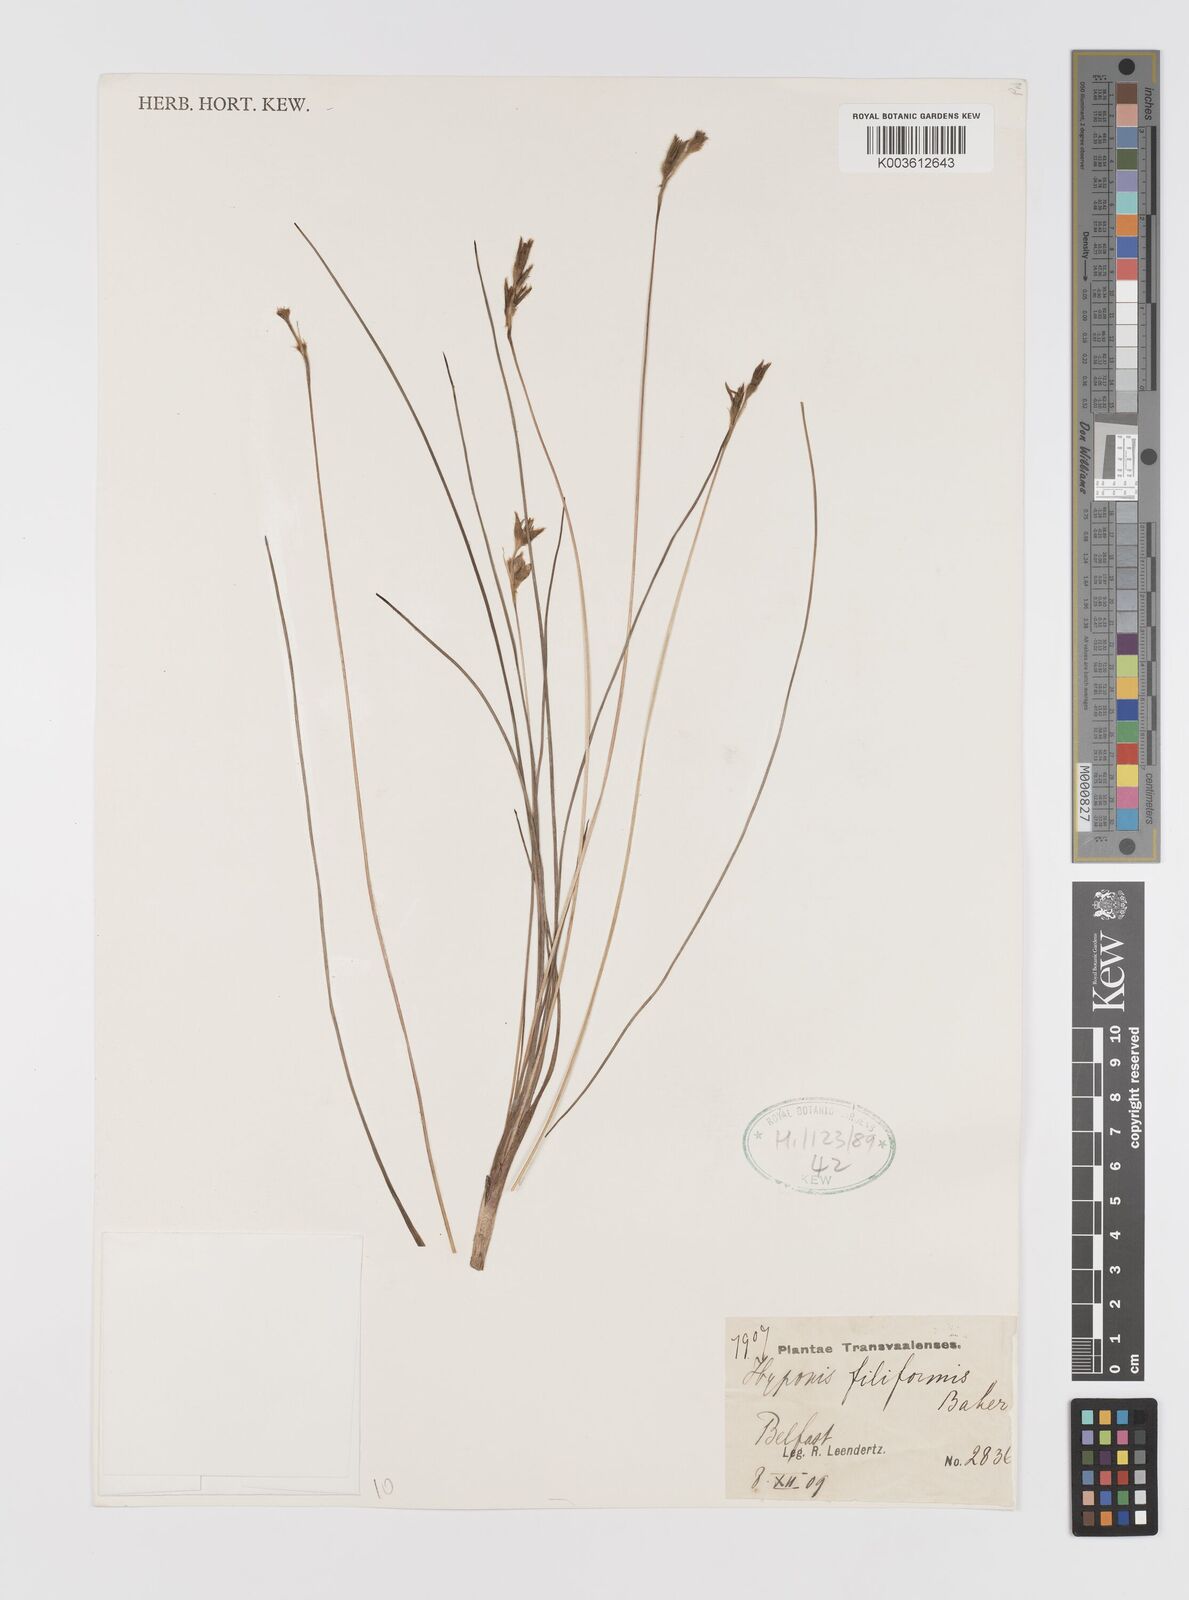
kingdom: Plantae
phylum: Tracheophyta
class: Liliopsida
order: Asparagales
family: Hypoxidaceae
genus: Hypoxis
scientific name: Hypoxis filiformis
